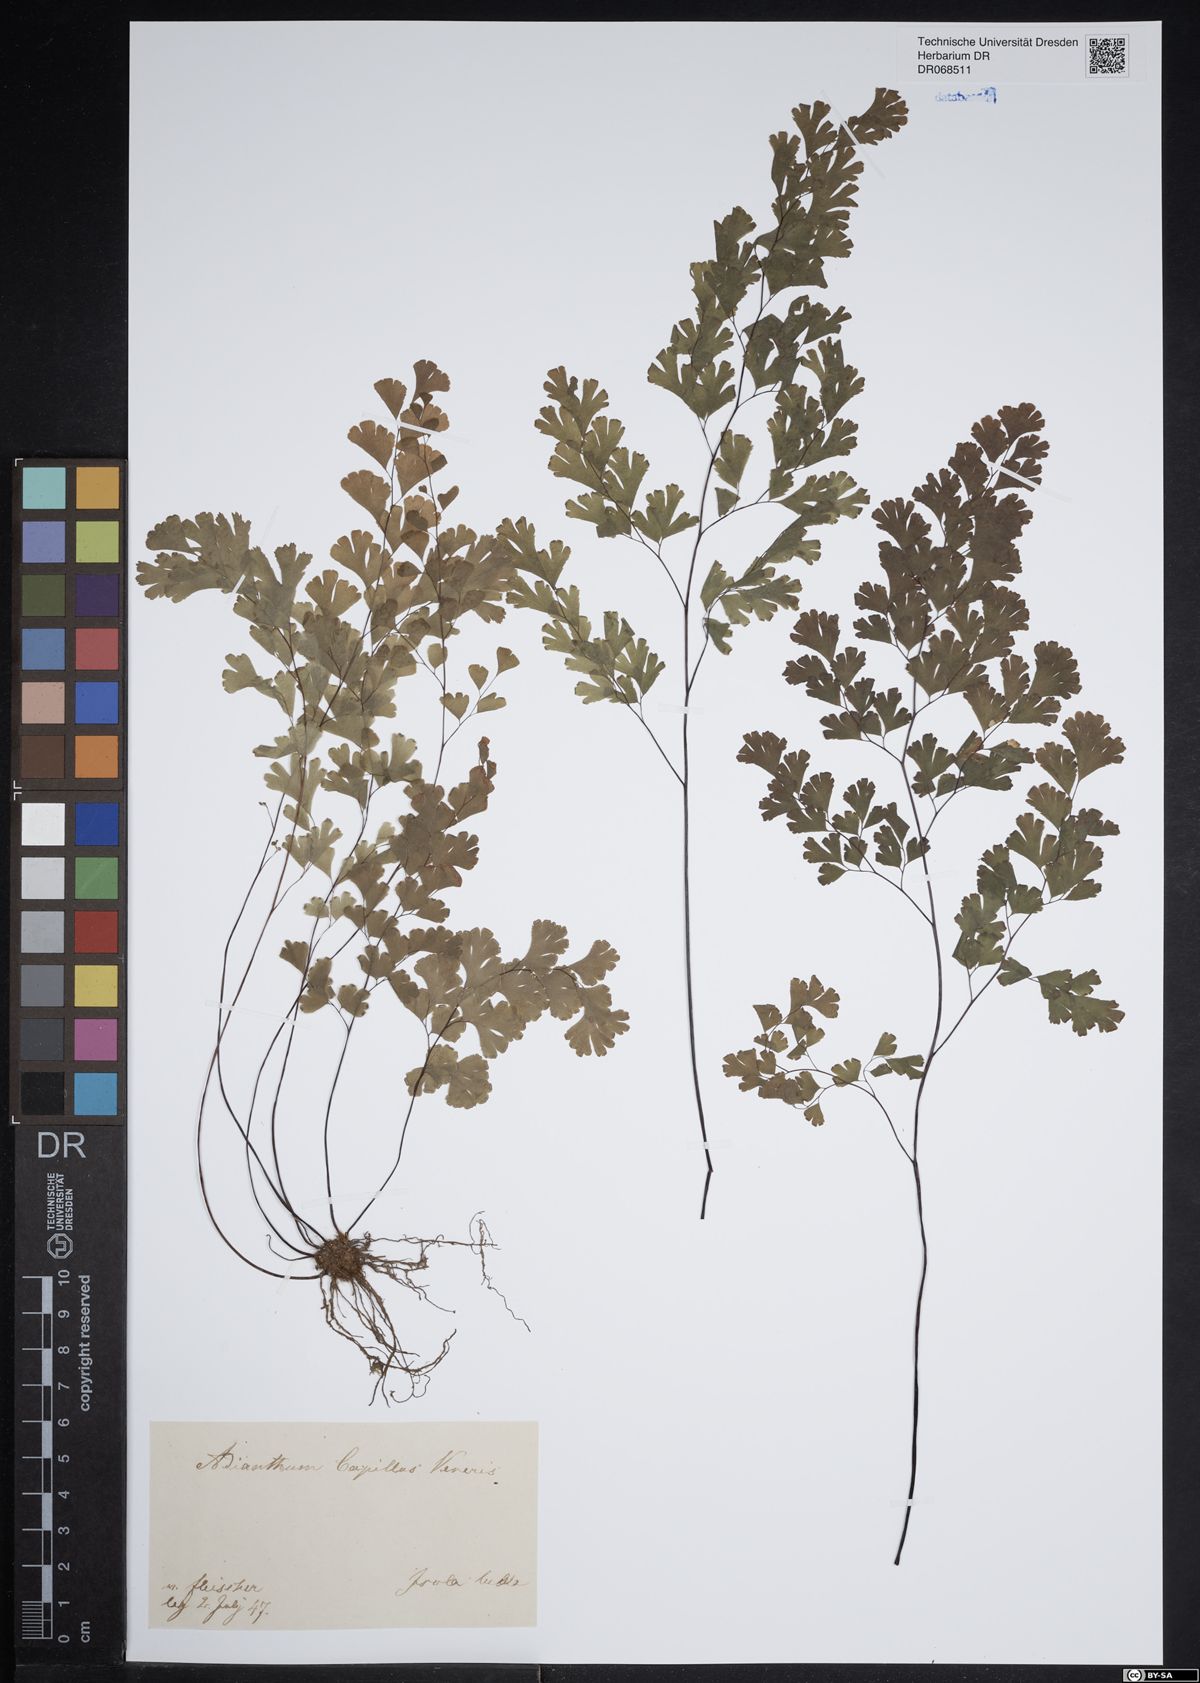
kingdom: Plantae
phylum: Tracheophyta
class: Polypodiopsida
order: Polypodiales
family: Pteridaceae
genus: Adiantum
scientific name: Adiantum capillus-veneris
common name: Maidenhair fern
